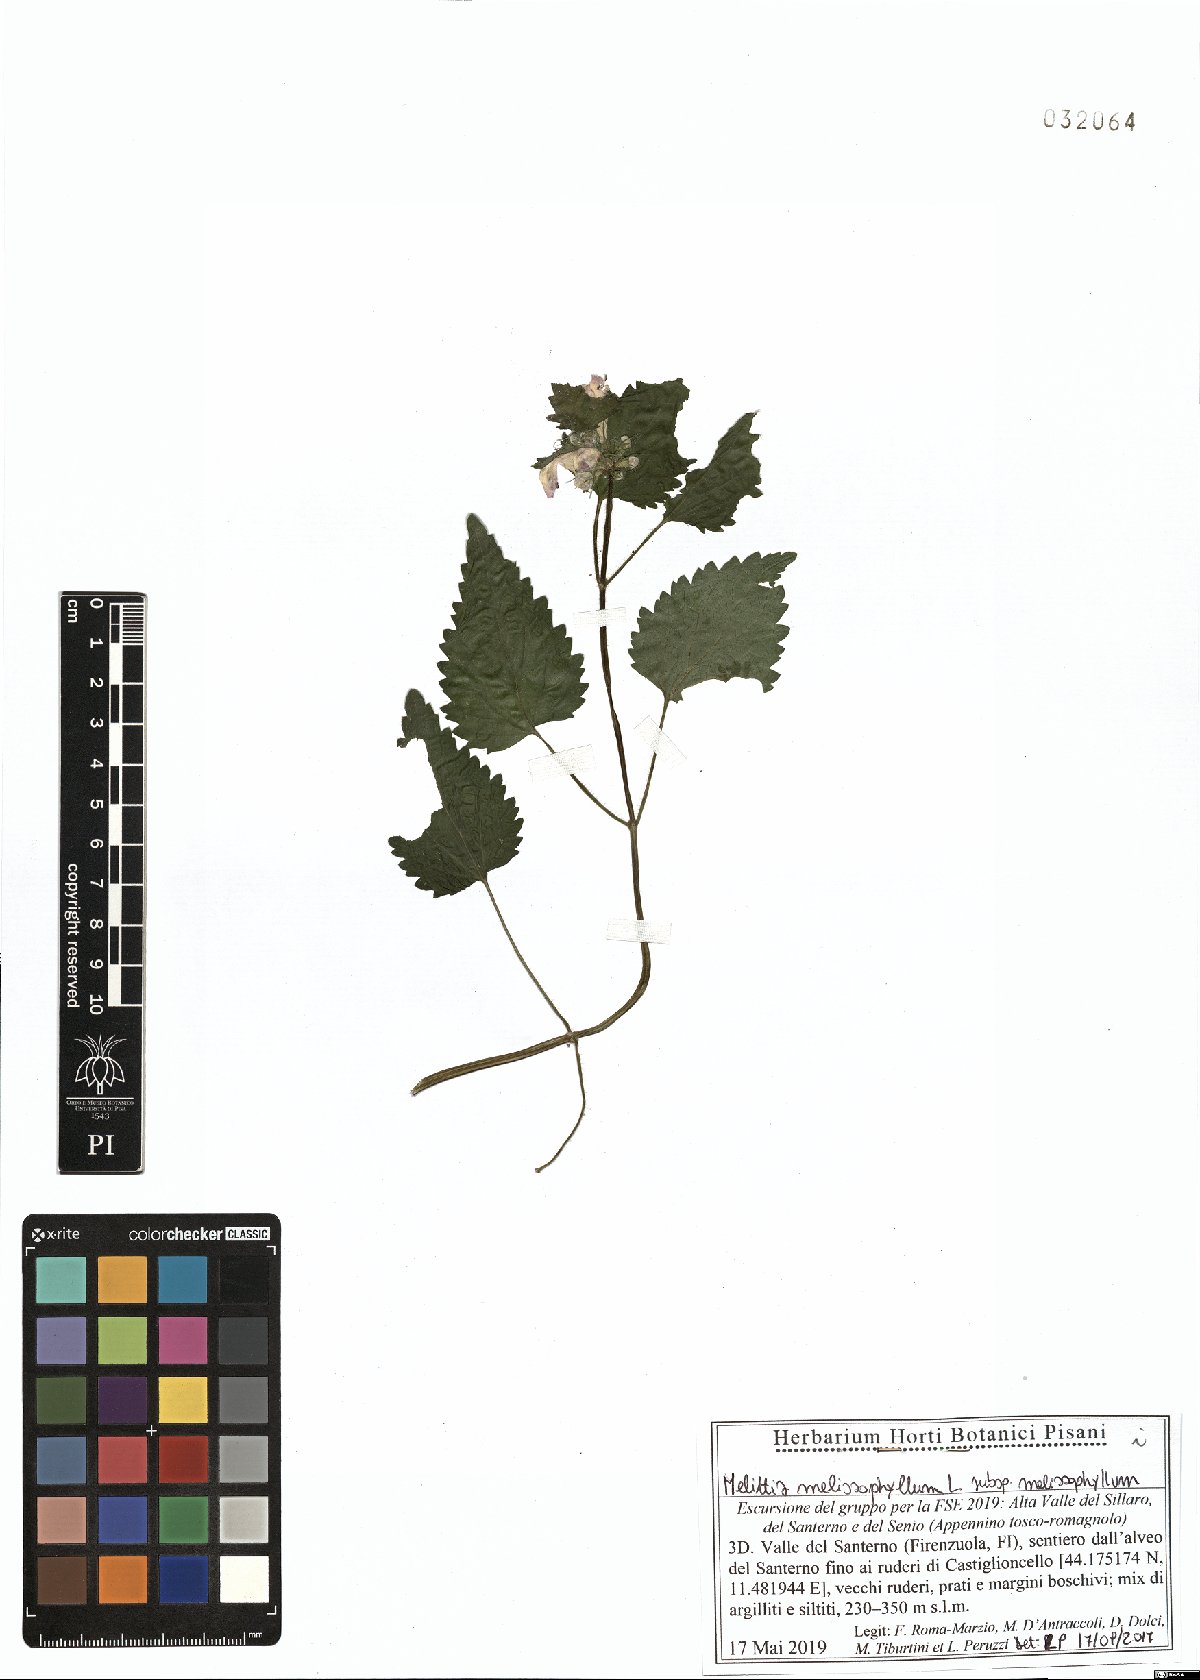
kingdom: Plantae
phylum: Tracheophyta
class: Magnoliopsida
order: Lamiales
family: Lamiaceae
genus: Melittis
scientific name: Melittis melissophyllum
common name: Bastard balm
